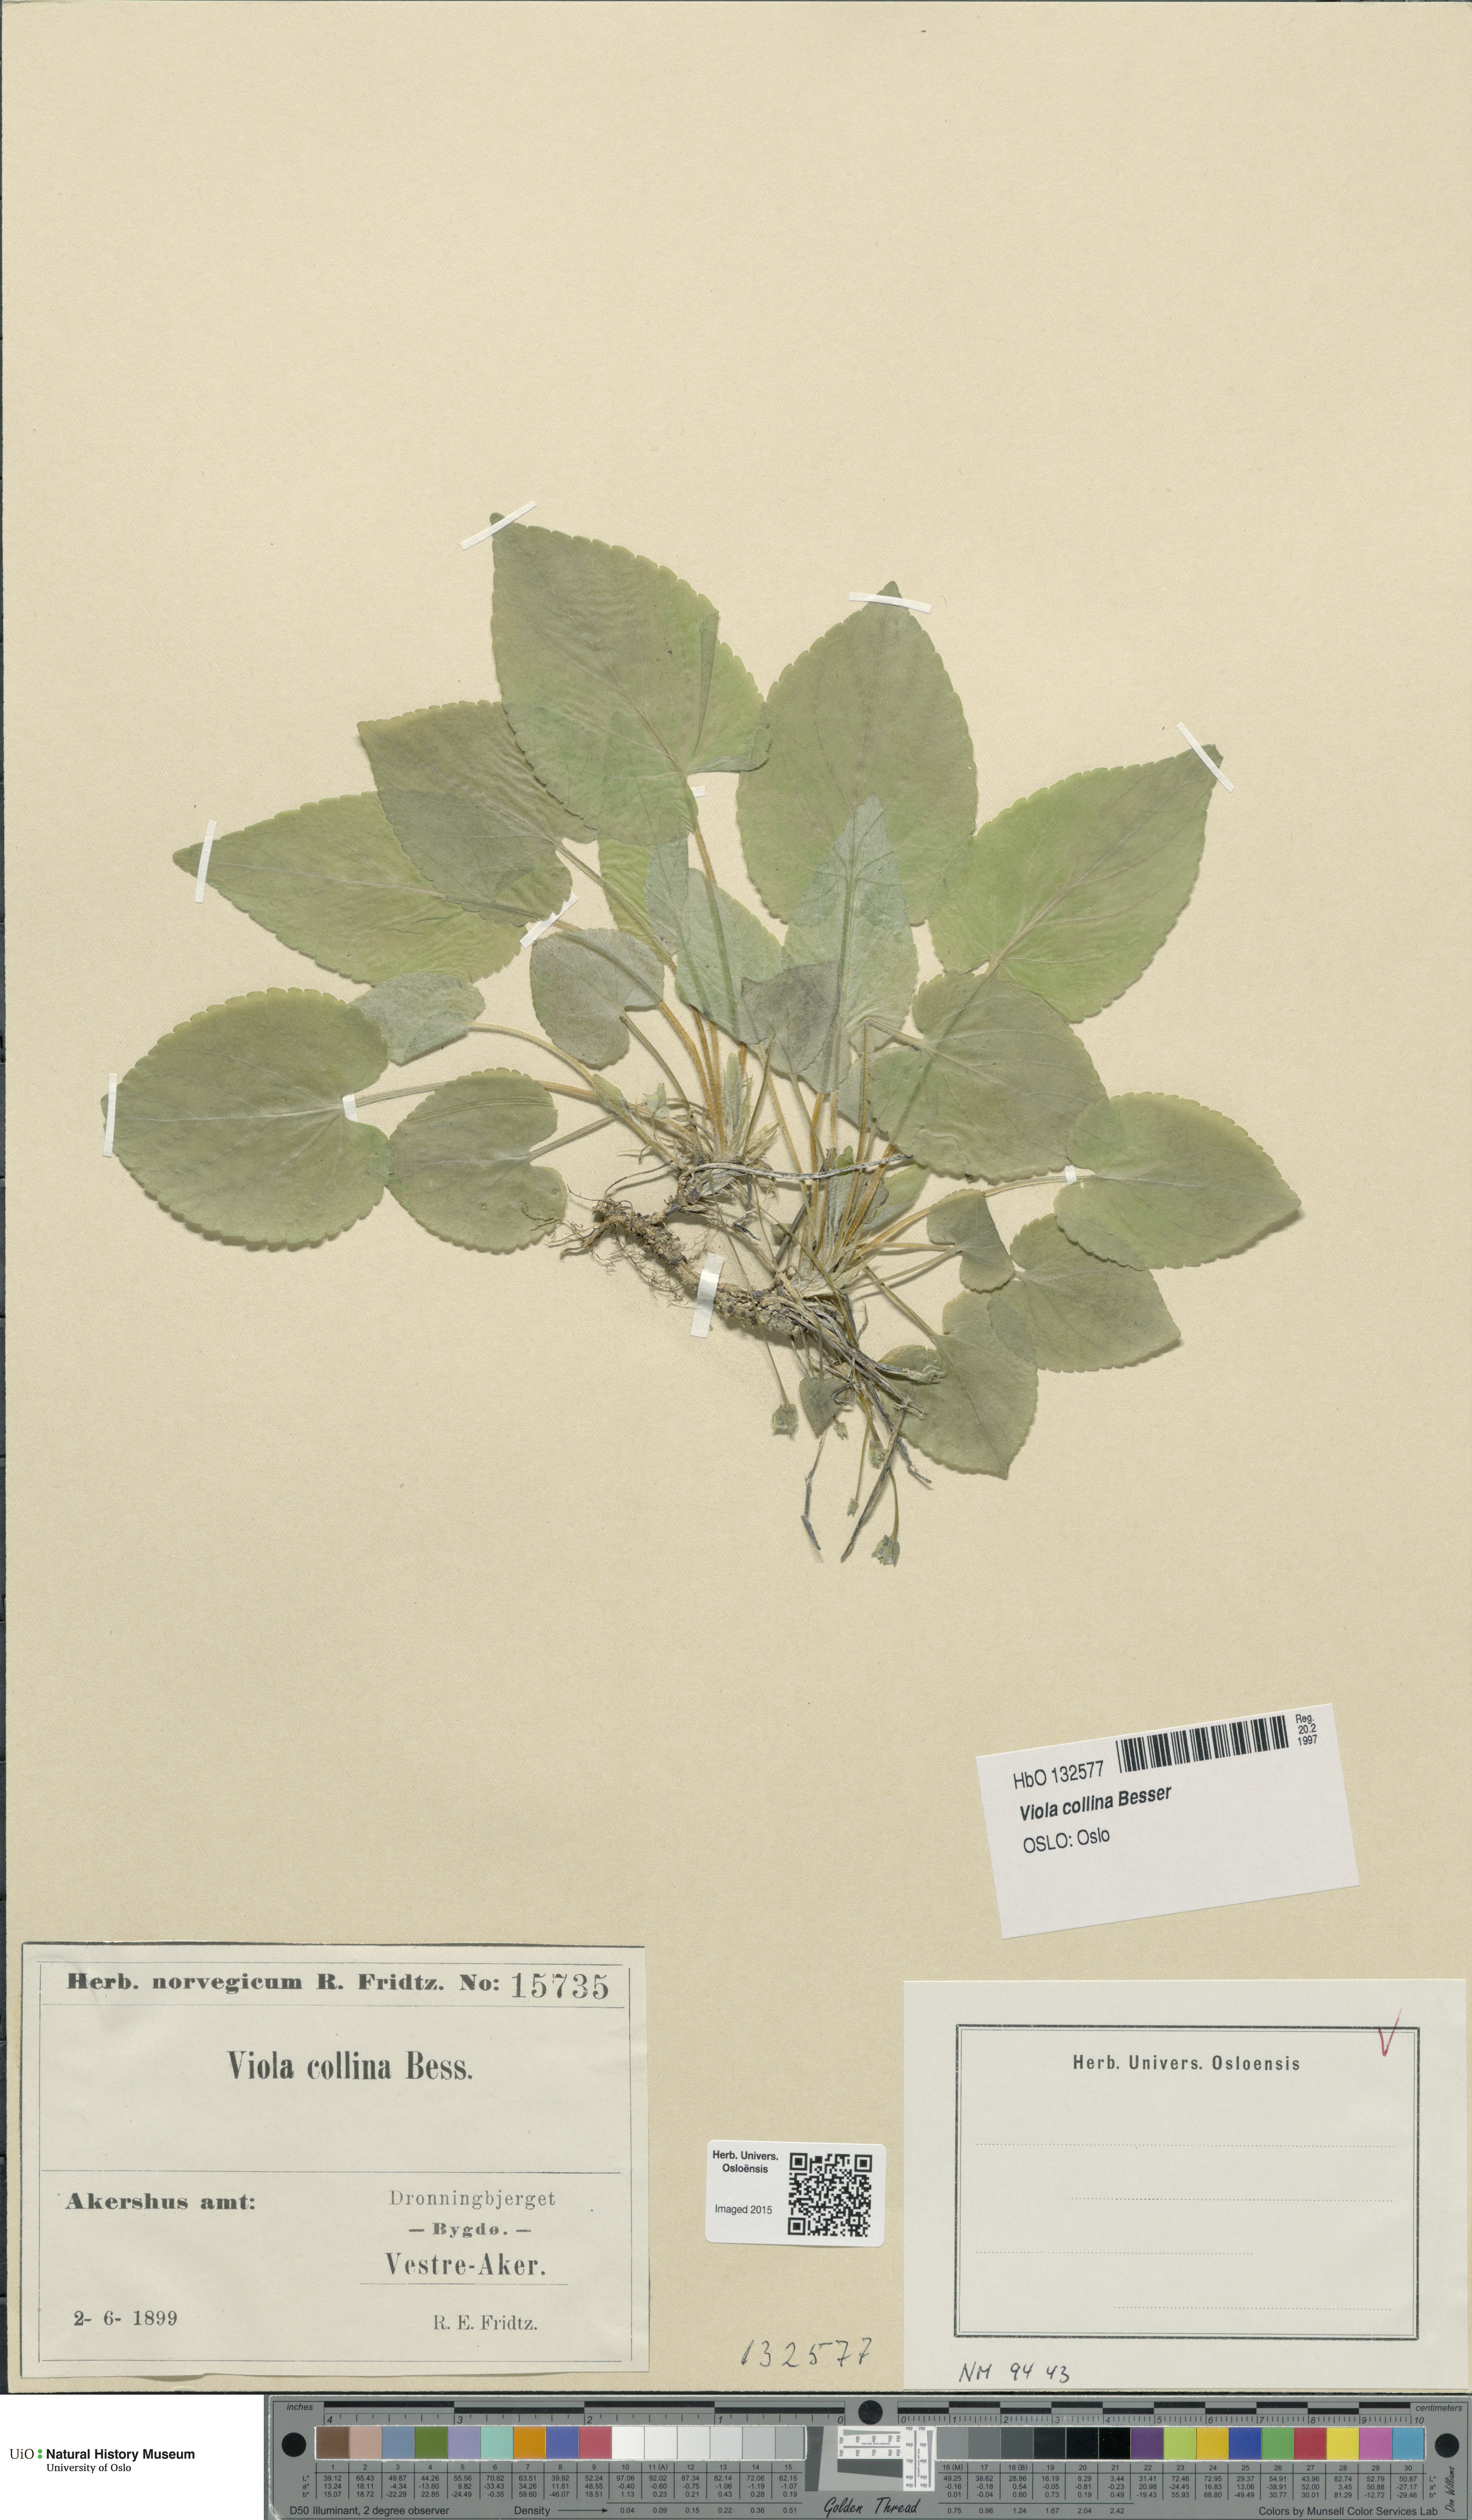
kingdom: Plantae
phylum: Tracheophyta
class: Magnoliopsida
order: Malpighiales
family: Violaceae
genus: Viola
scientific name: Viola collina
